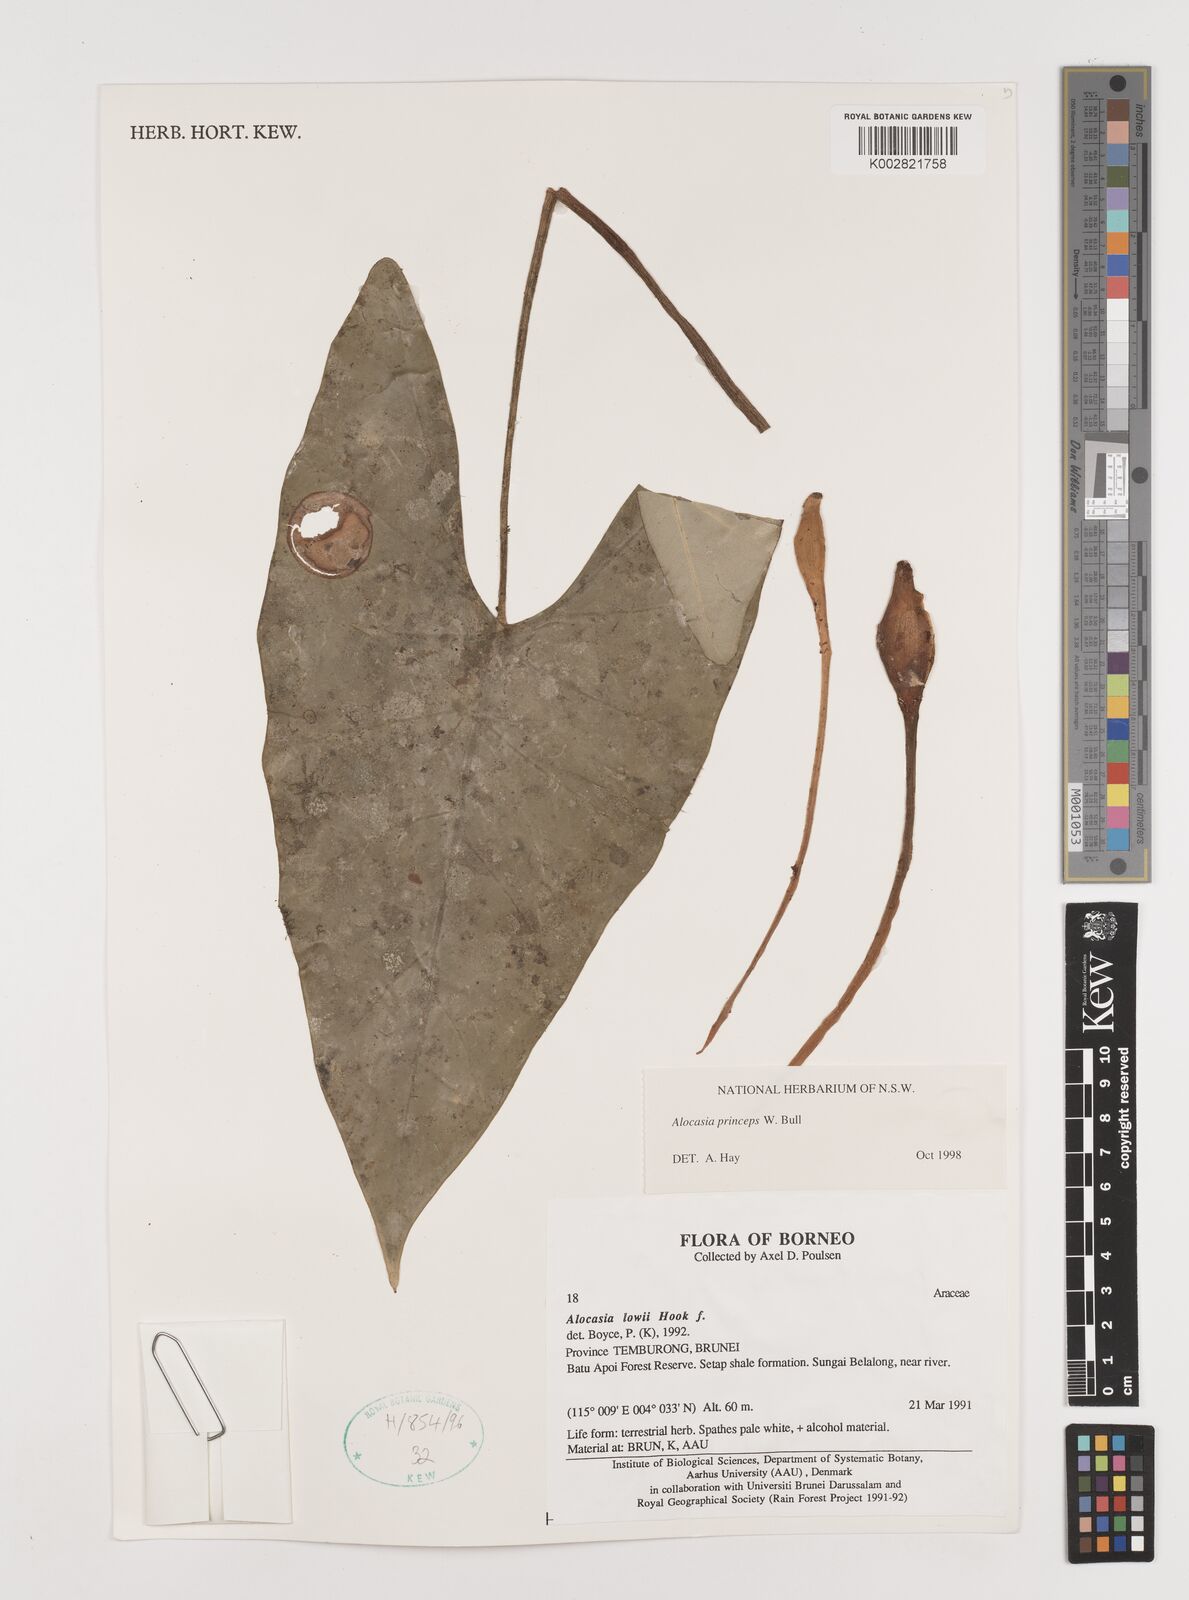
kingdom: Plantae
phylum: Tracheophyta
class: Liliopsida
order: Alismatales
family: Araceae
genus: Alocasia
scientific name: Alocasia princeps
